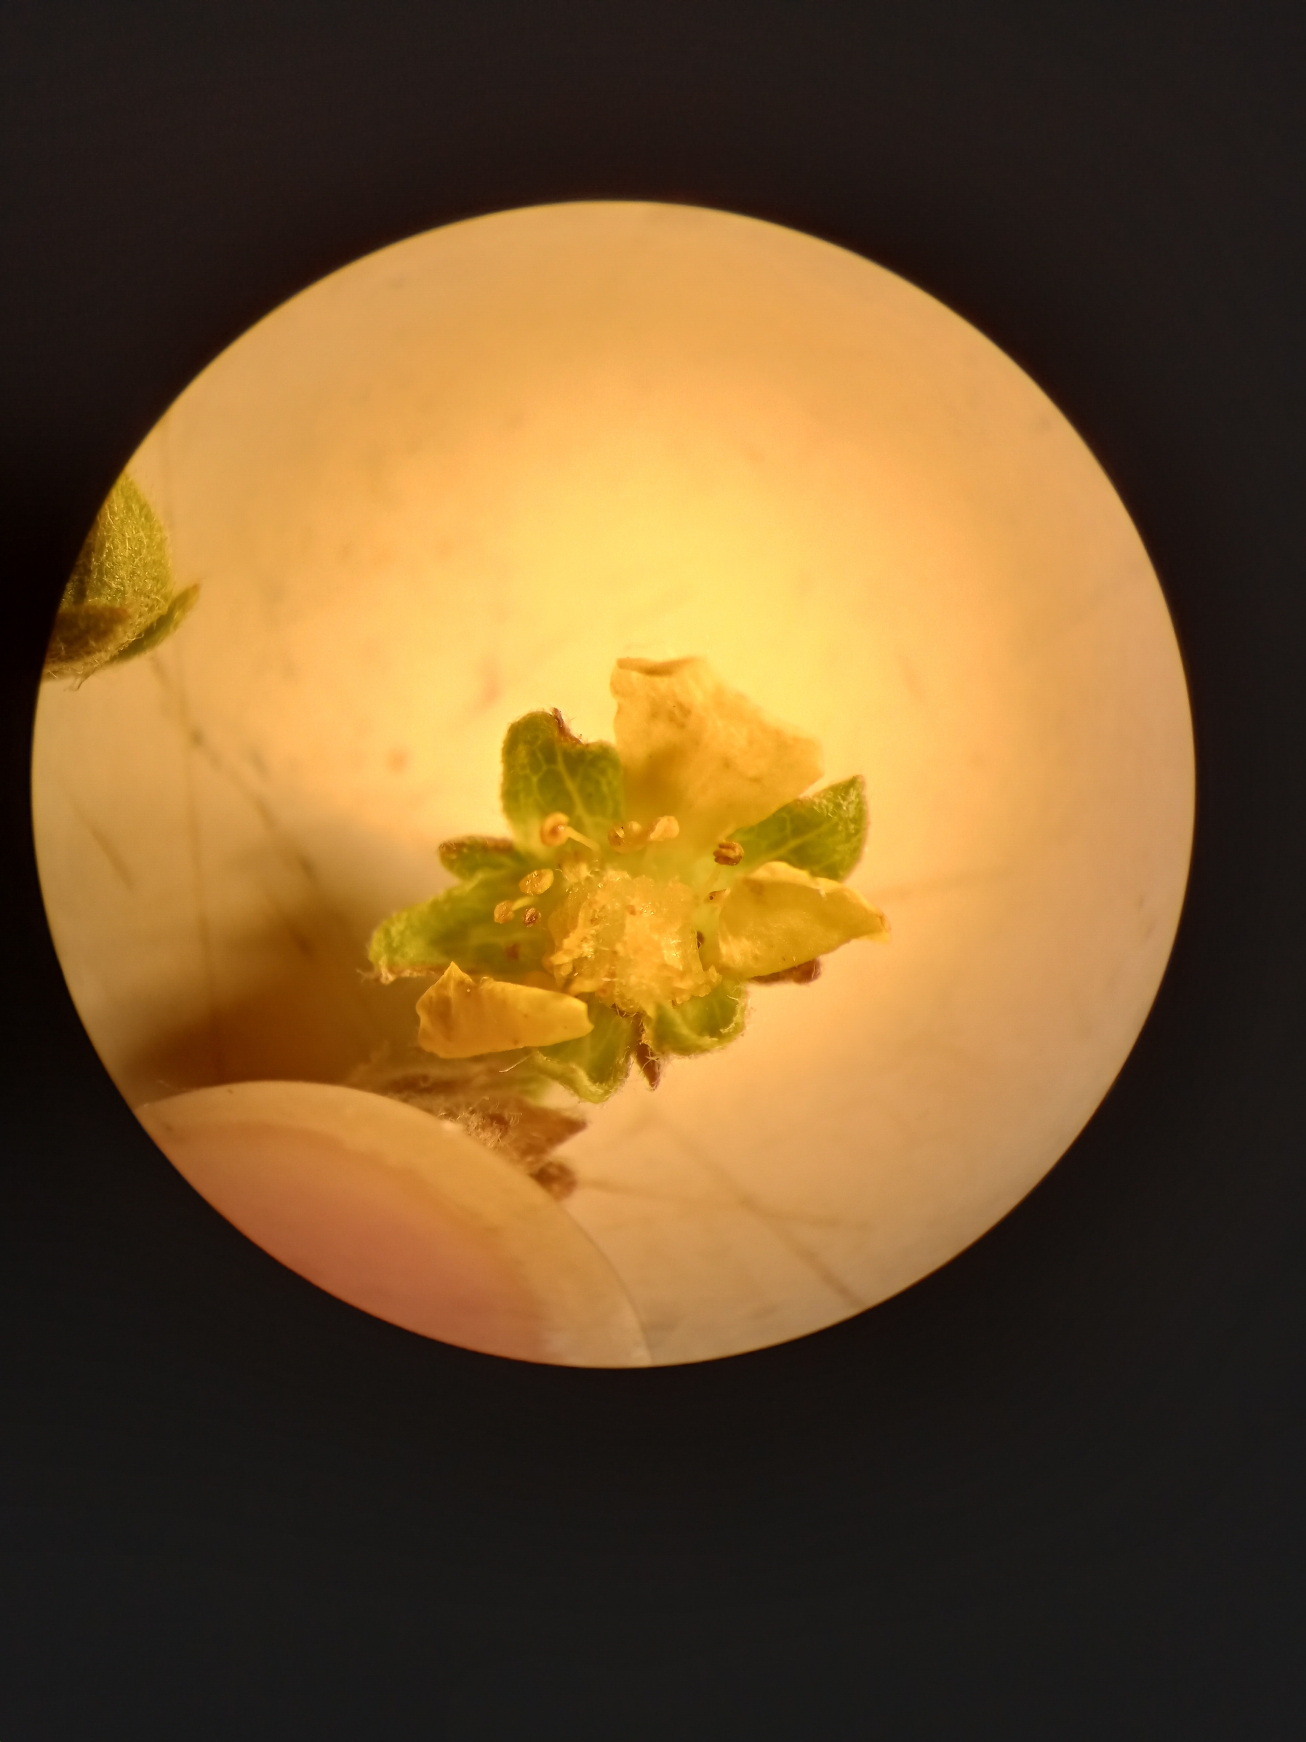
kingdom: Plantae
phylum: Tracheophyta
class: Magnoliopsida
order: Rosales
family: Rosaceae
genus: Potentilla
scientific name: Potentilla argentea
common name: Sølv-potentil
